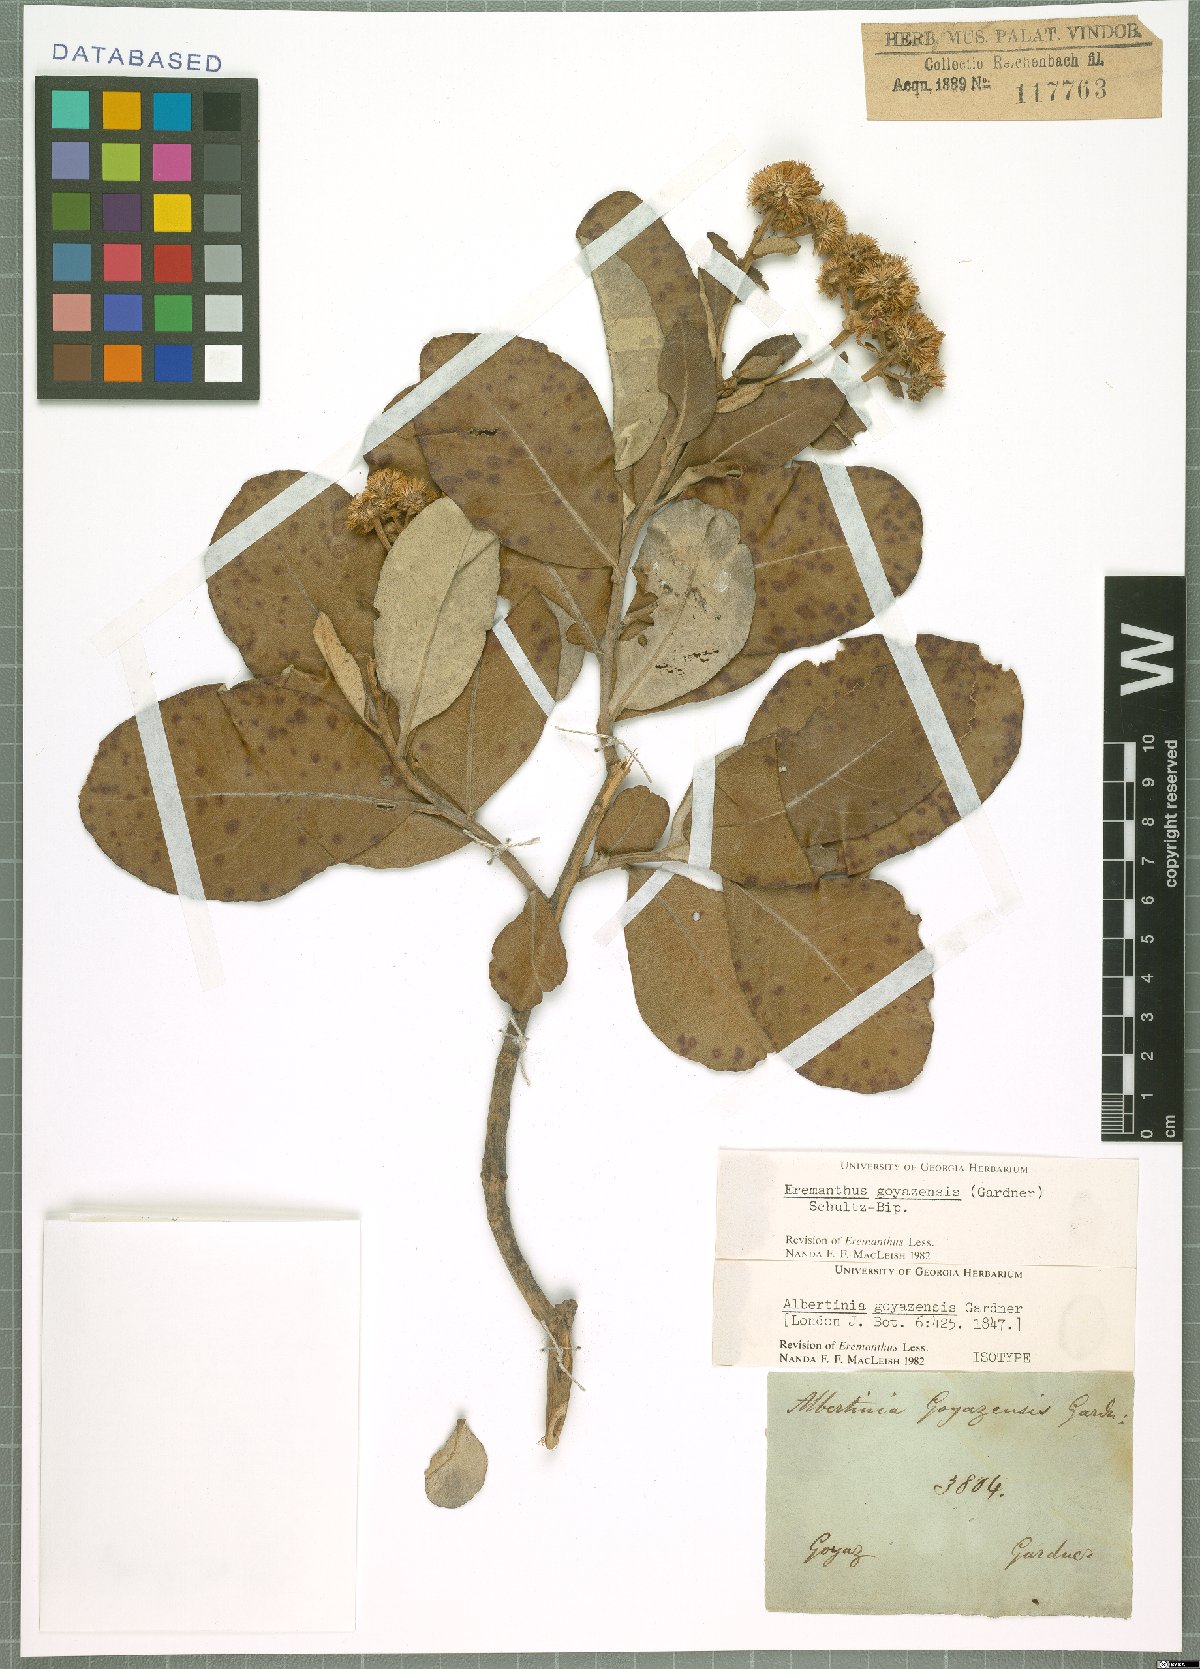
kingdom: Plantae
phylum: Tracheophyta
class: Magnoliopsida
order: Asterales
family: Asteraceae
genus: Eremanthus
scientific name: Eremanthus goyazensis
